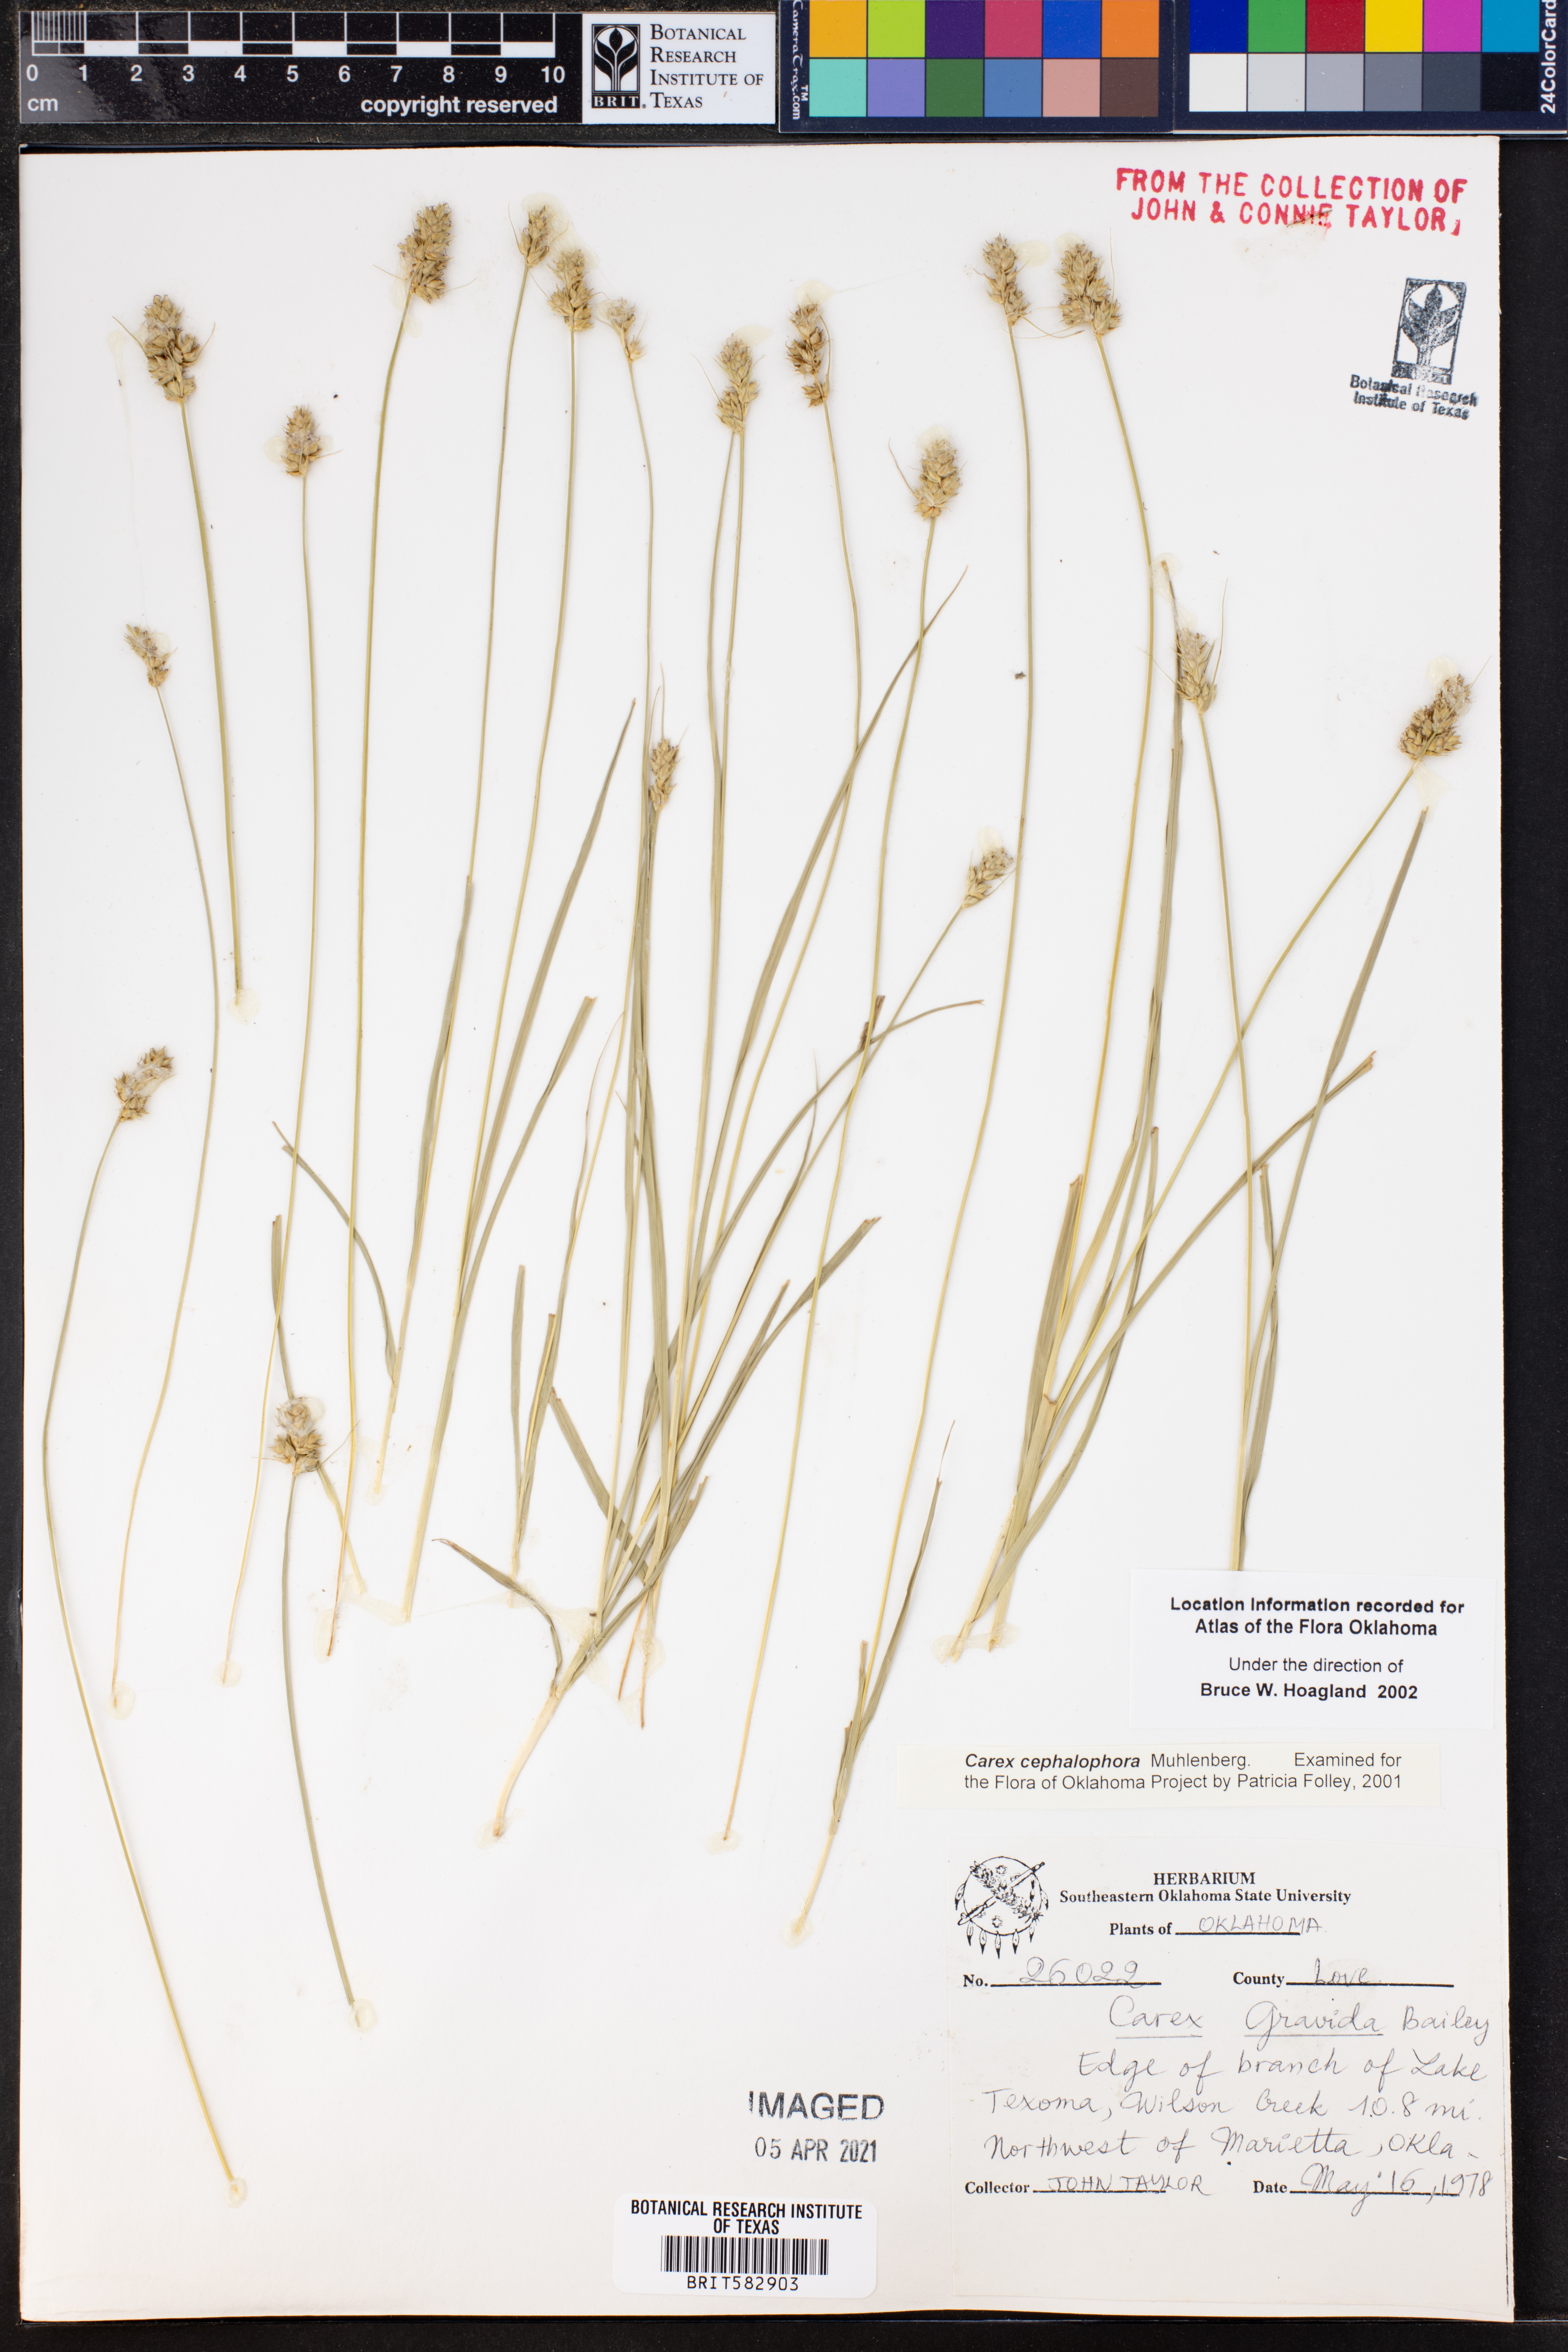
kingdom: Plantae
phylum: Tracheophyta
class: Liliopsida
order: Poales
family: Cyperaceae
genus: Carex
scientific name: Carex cephalophora
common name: Oval-headed sedge
